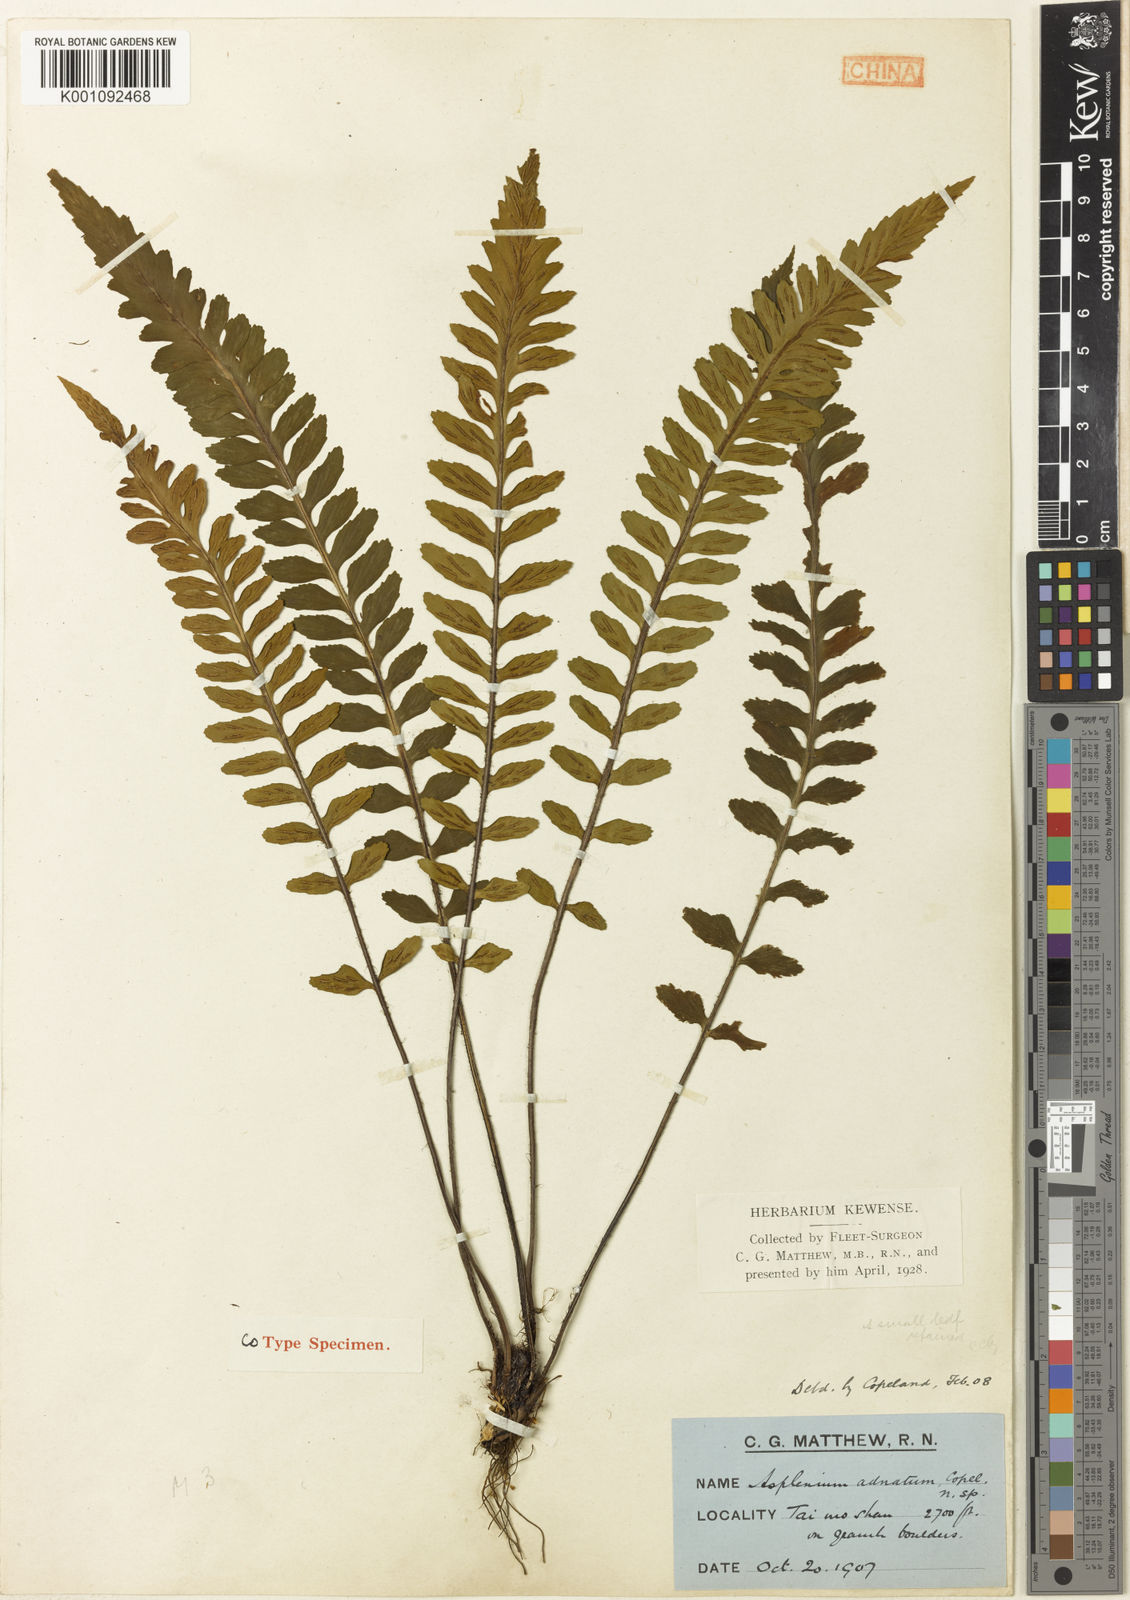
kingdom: Plantae
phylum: Tracheophyta
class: Polypodiopsida
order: Polypodiales
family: Aspleniaceae
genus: Asplenium
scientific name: Asplenium adnatum
